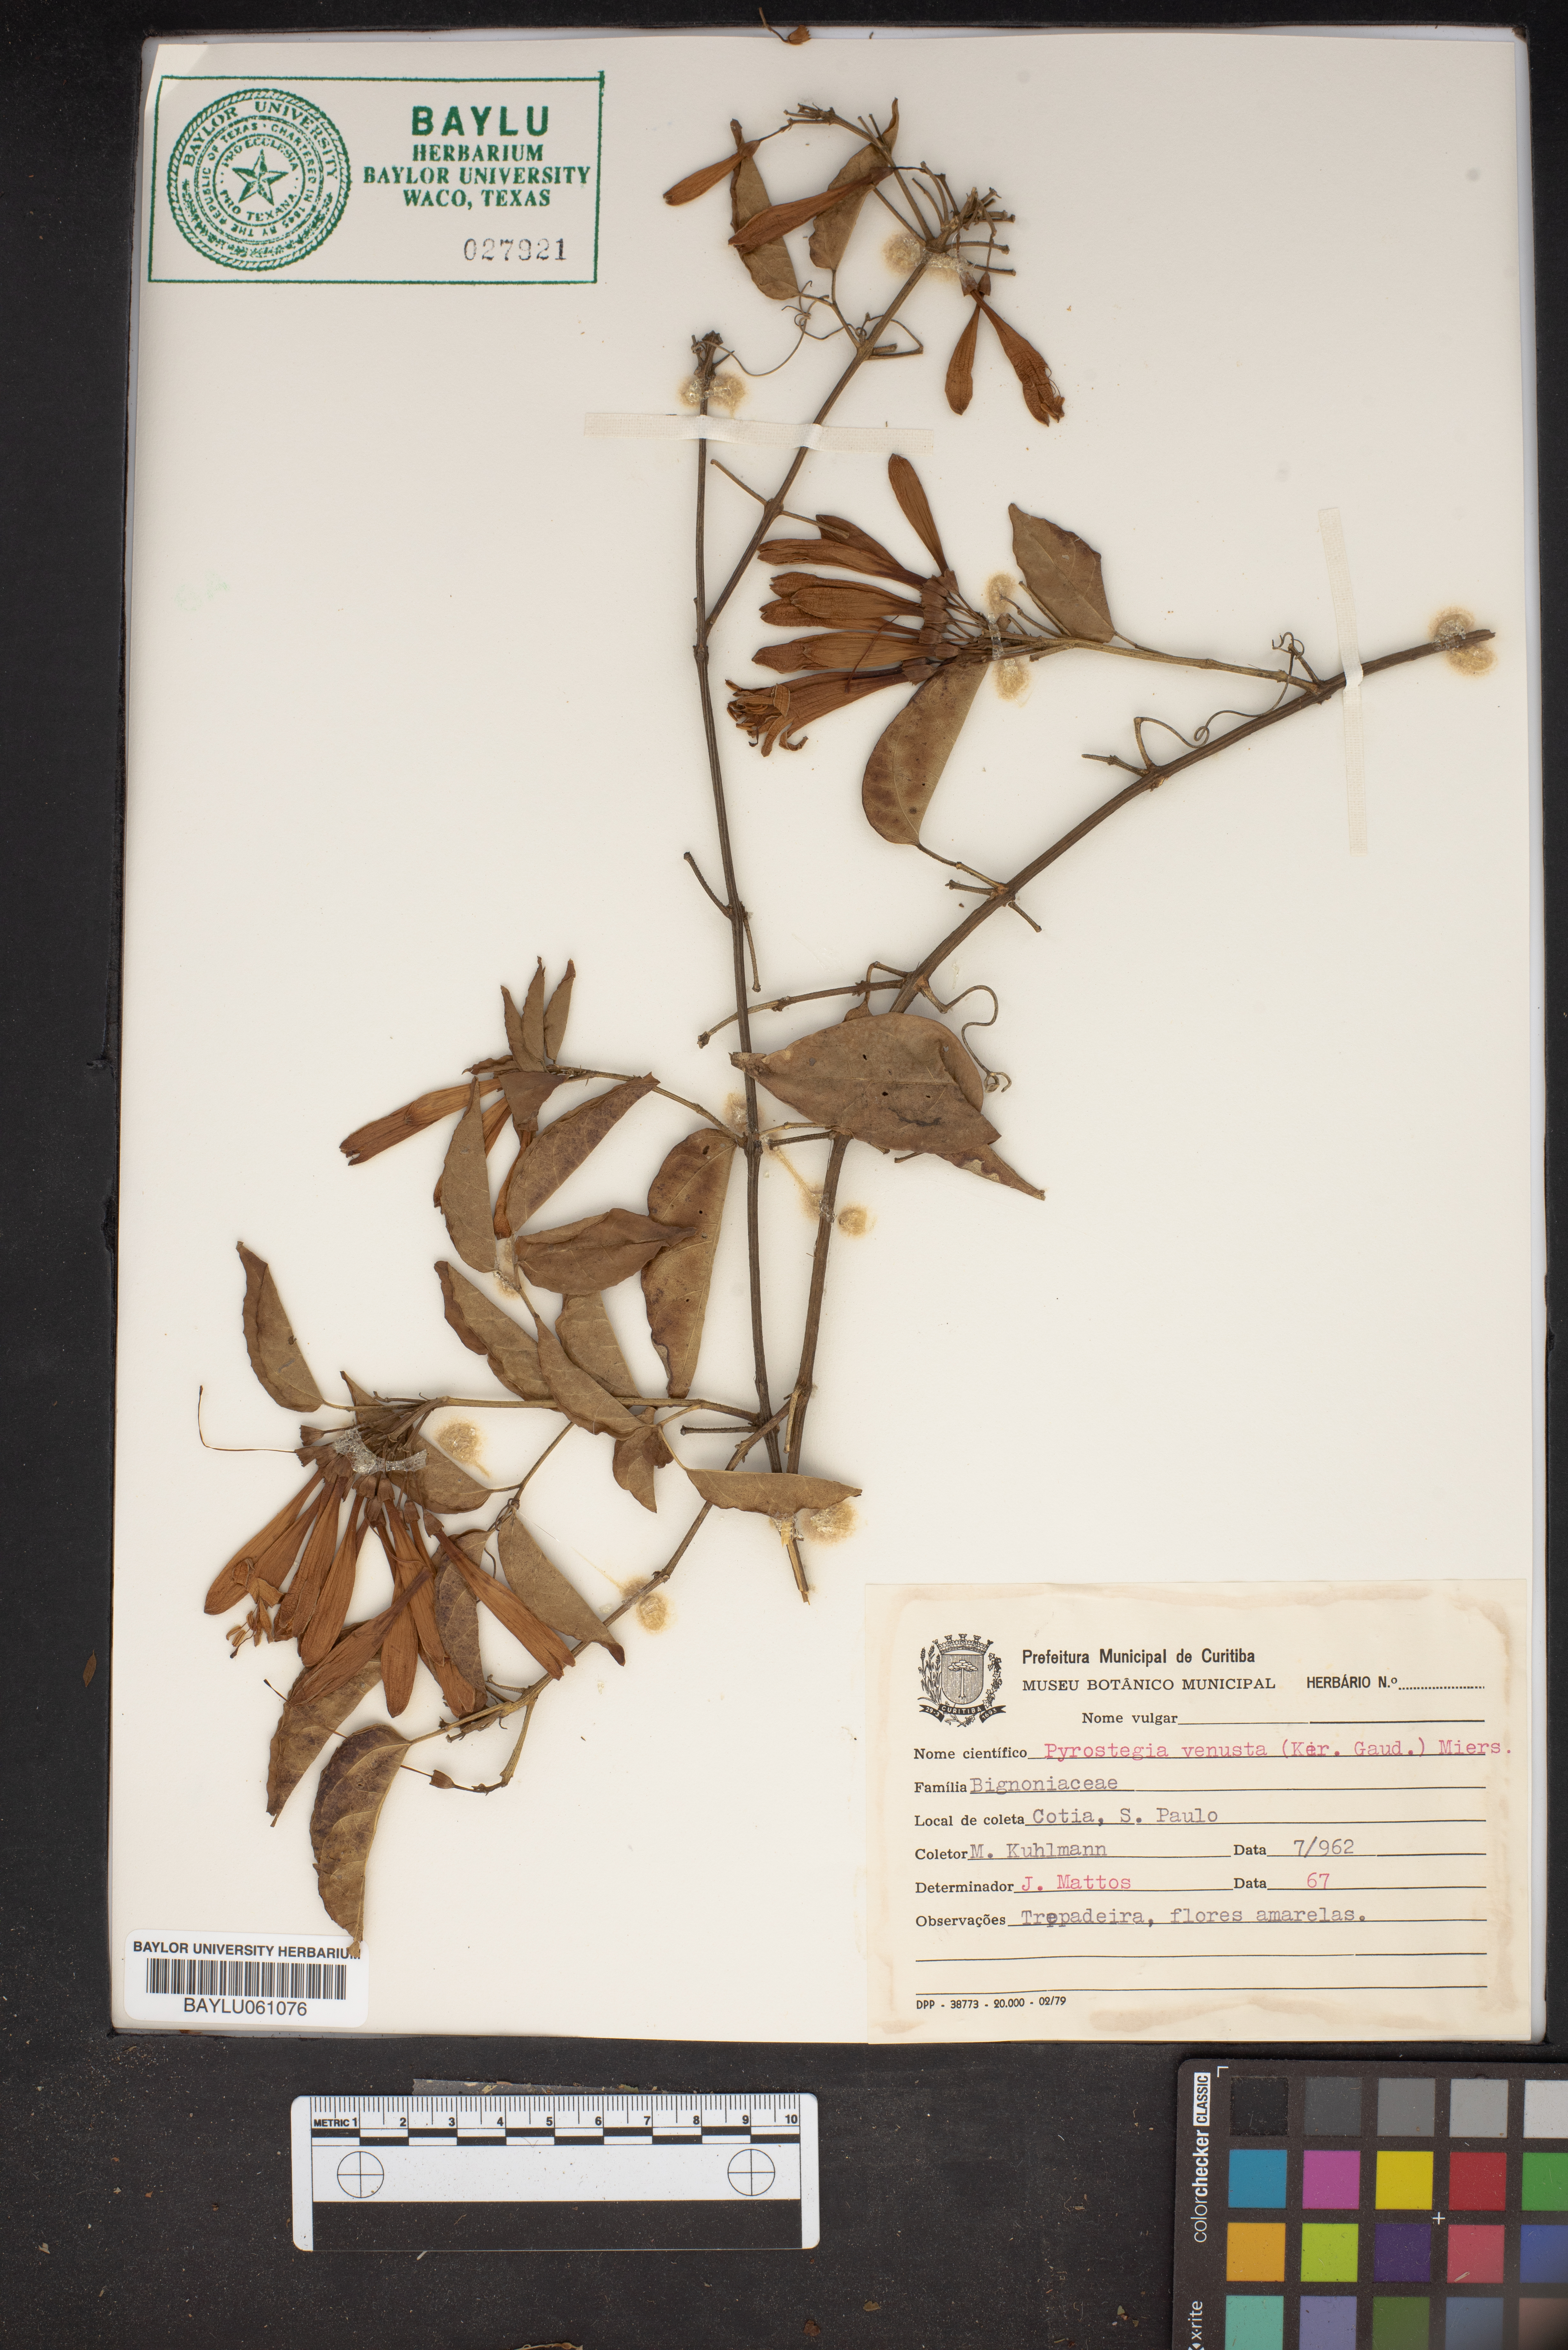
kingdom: Plantae
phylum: Tracheophyta
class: Magnoliopsida
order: Lamiales
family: Bignoniaceae
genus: Pyrostegia
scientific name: Pyrostegia venusta
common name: Flamevine
